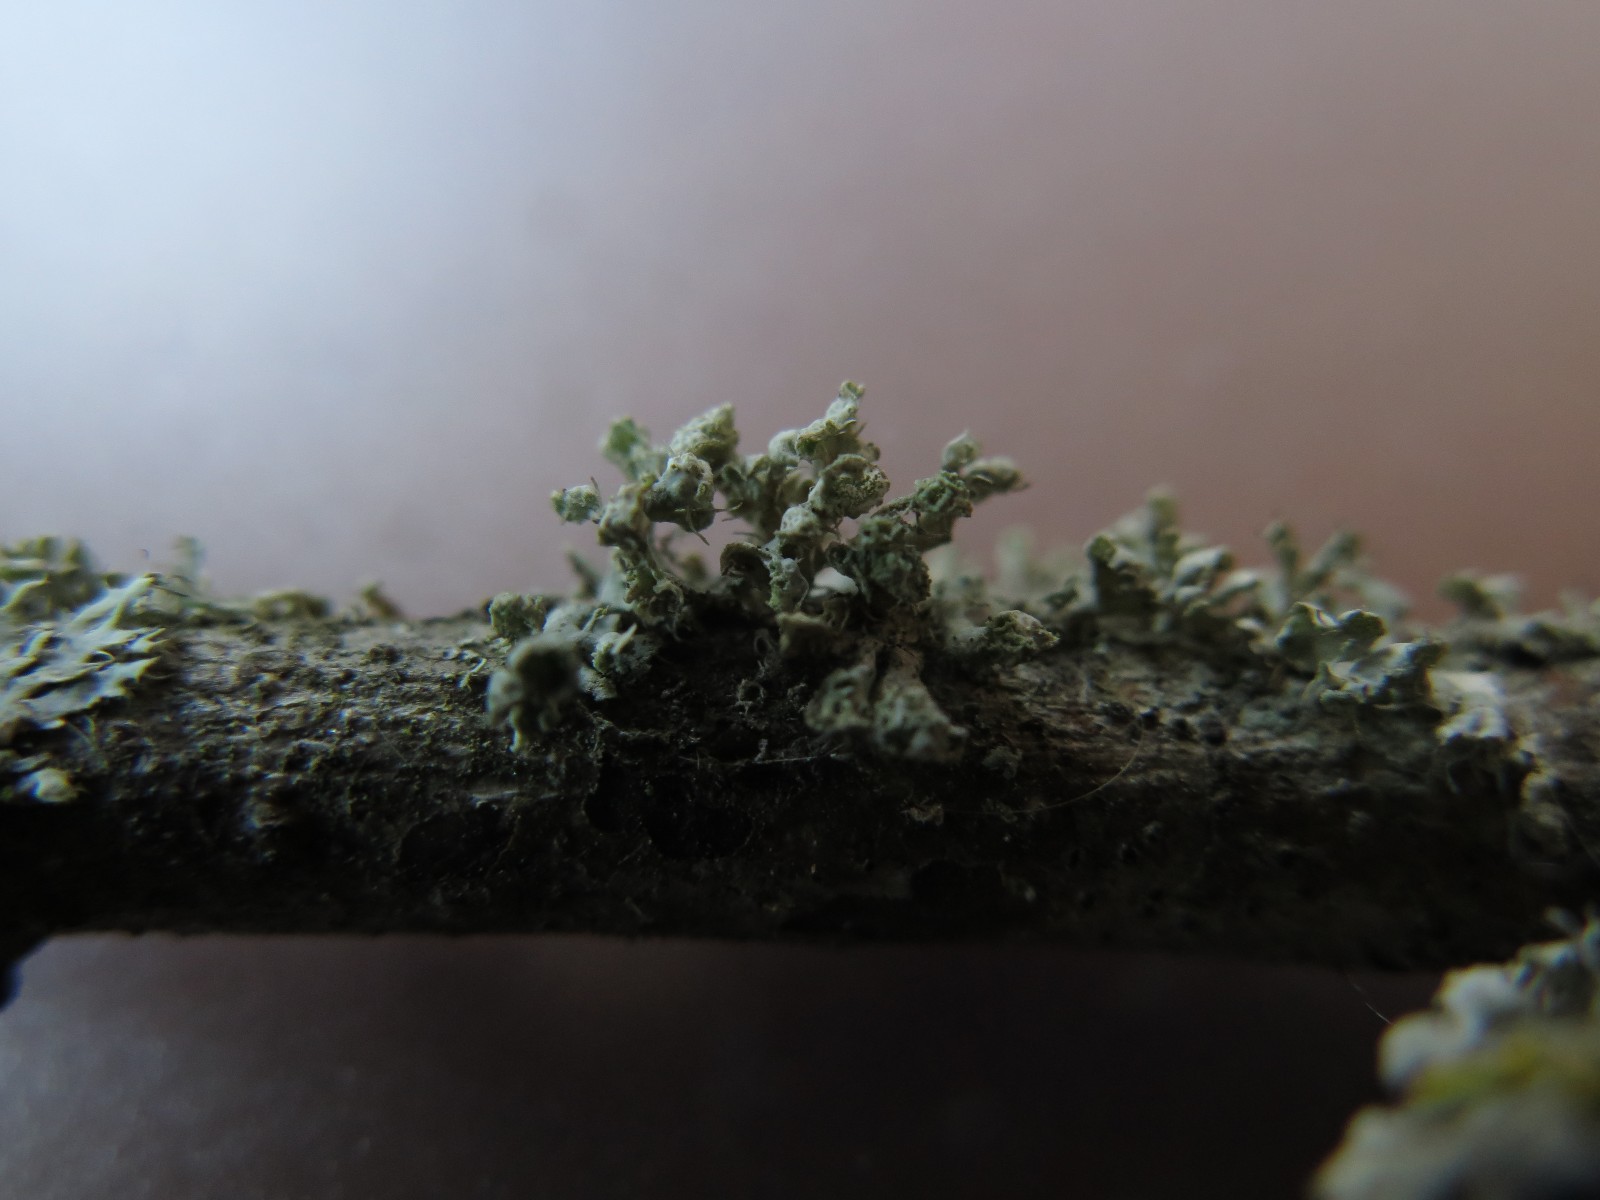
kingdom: Fungi
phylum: Ascomycota
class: Lecanoromycetes
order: Caliciales
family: Physciaceae
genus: Physcia
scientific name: Physcia adscendens
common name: hætte-rosetlav
